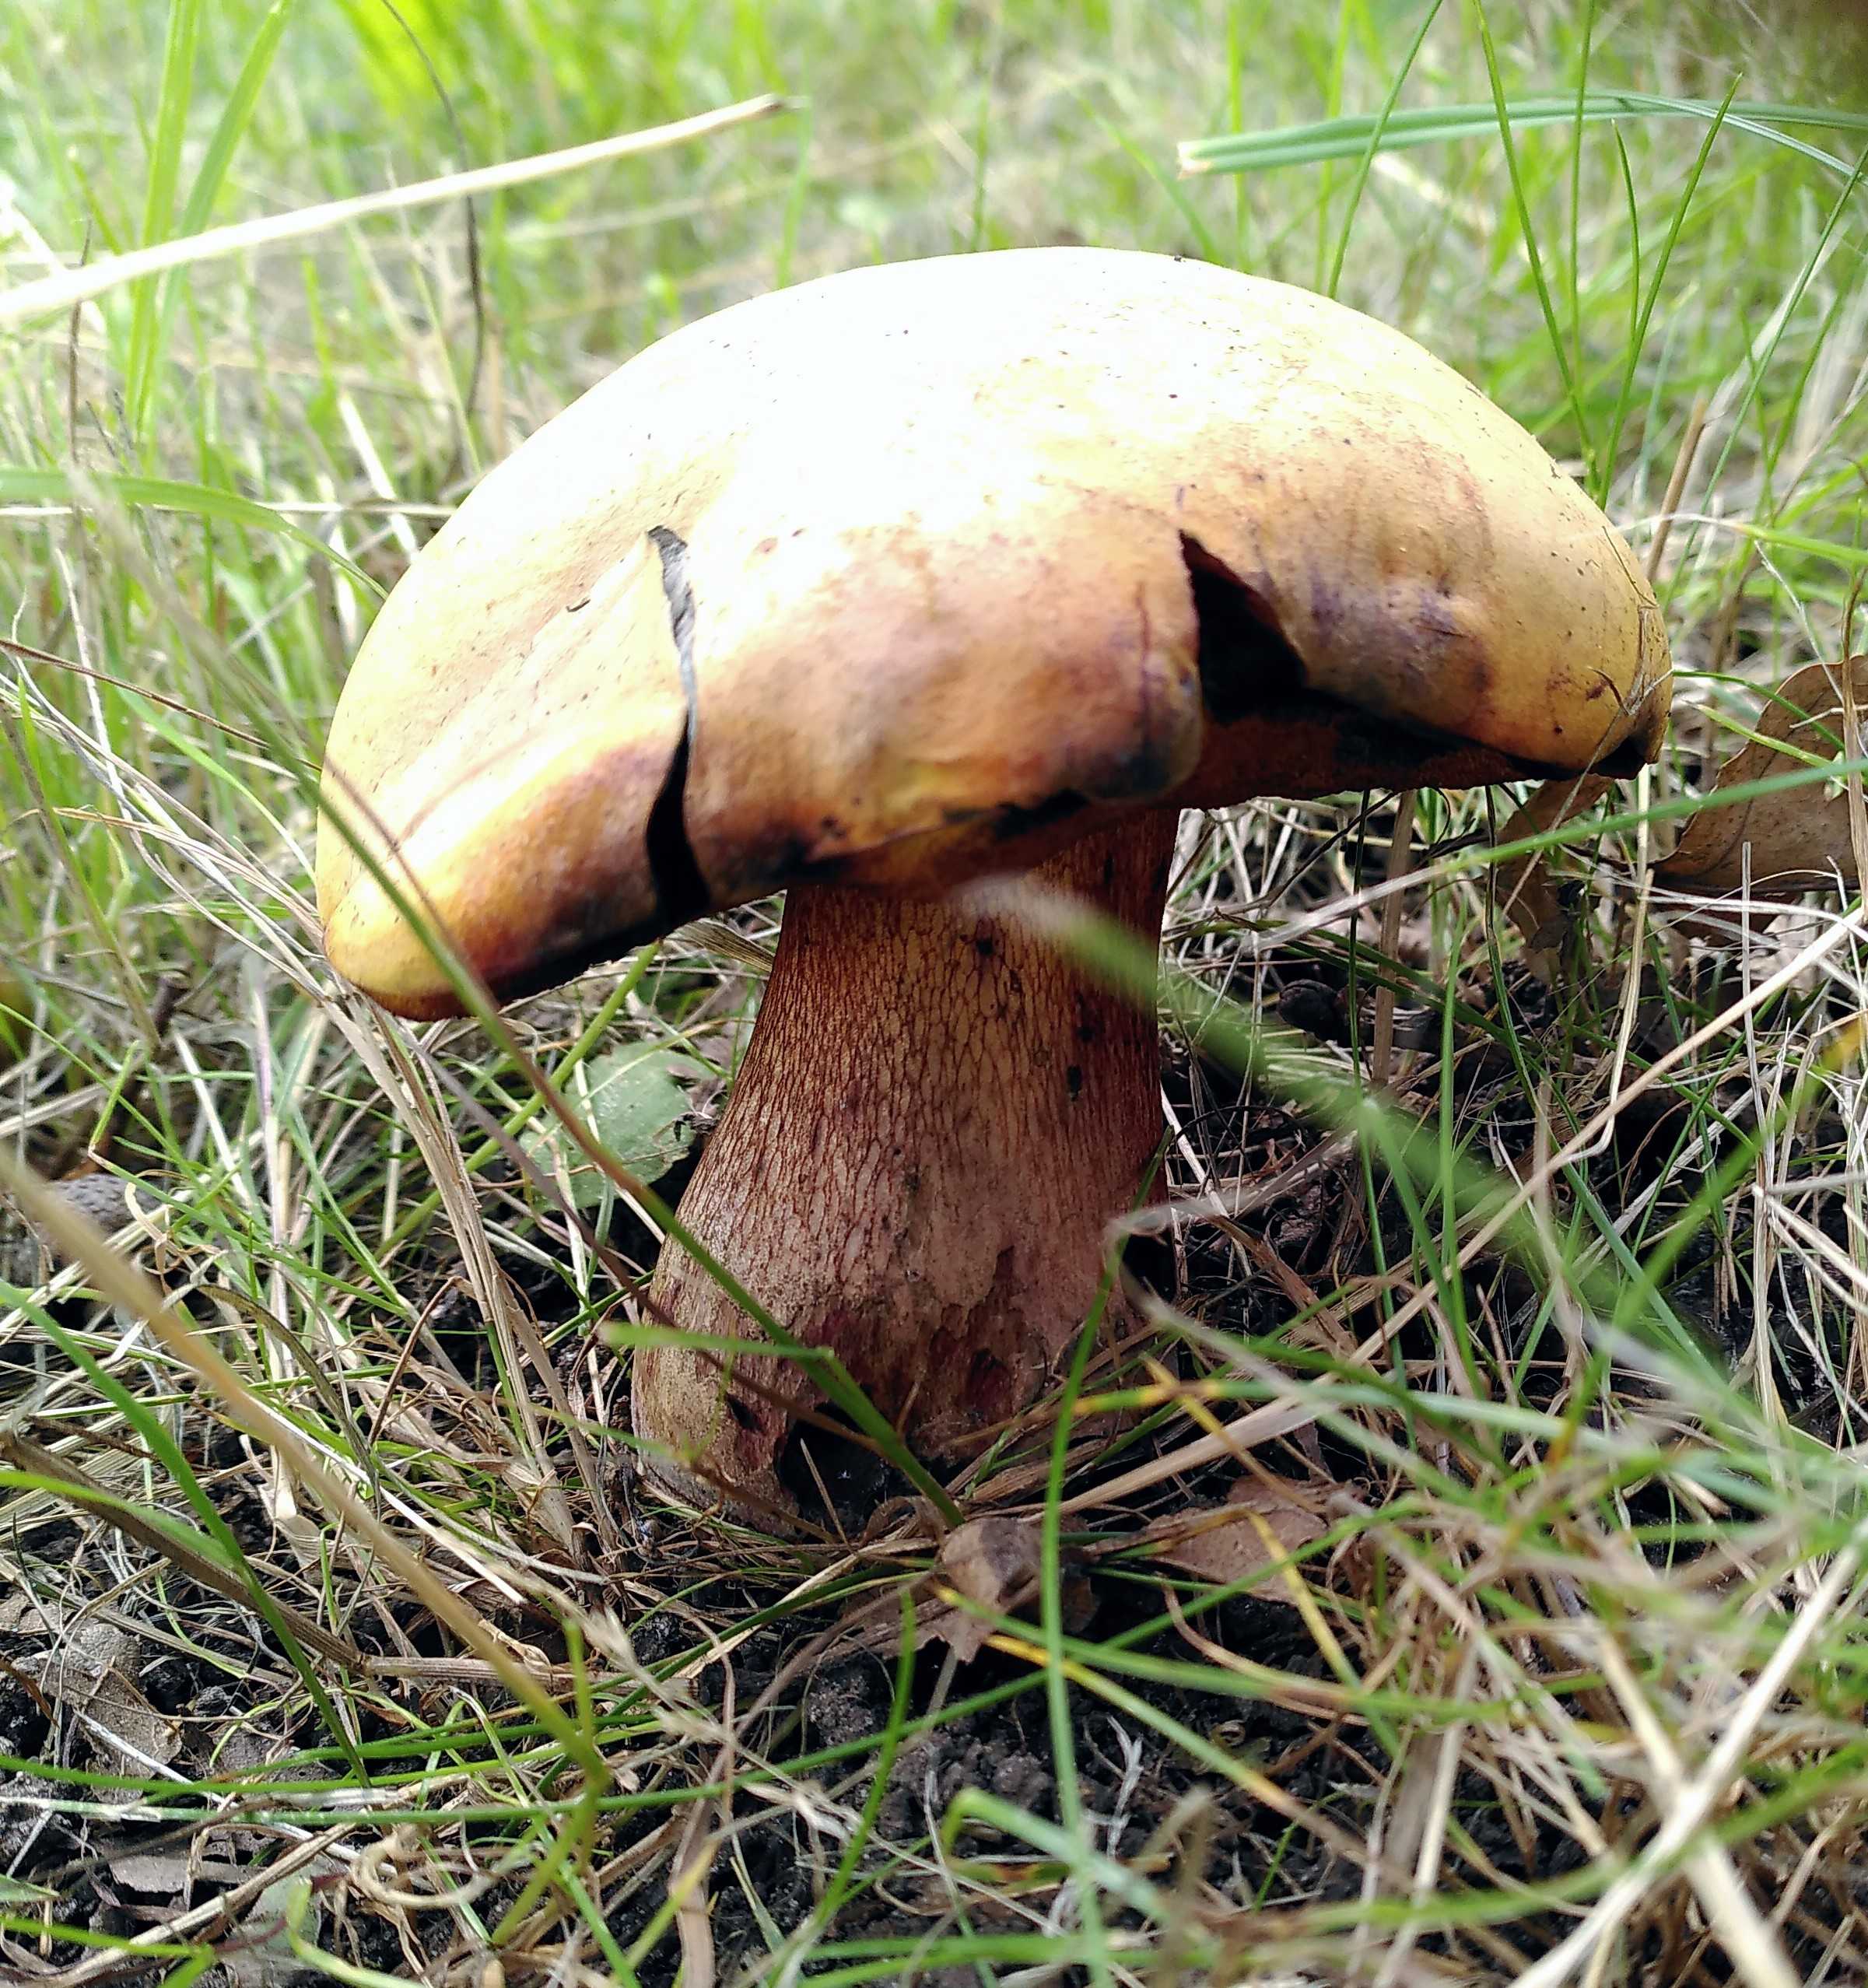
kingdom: Fungi
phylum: Basidiomycota
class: Agaricomycetes
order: Boletales
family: Boletaceae
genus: Suillellus
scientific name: Suillellus luridus
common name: netstokket indigorørhat
